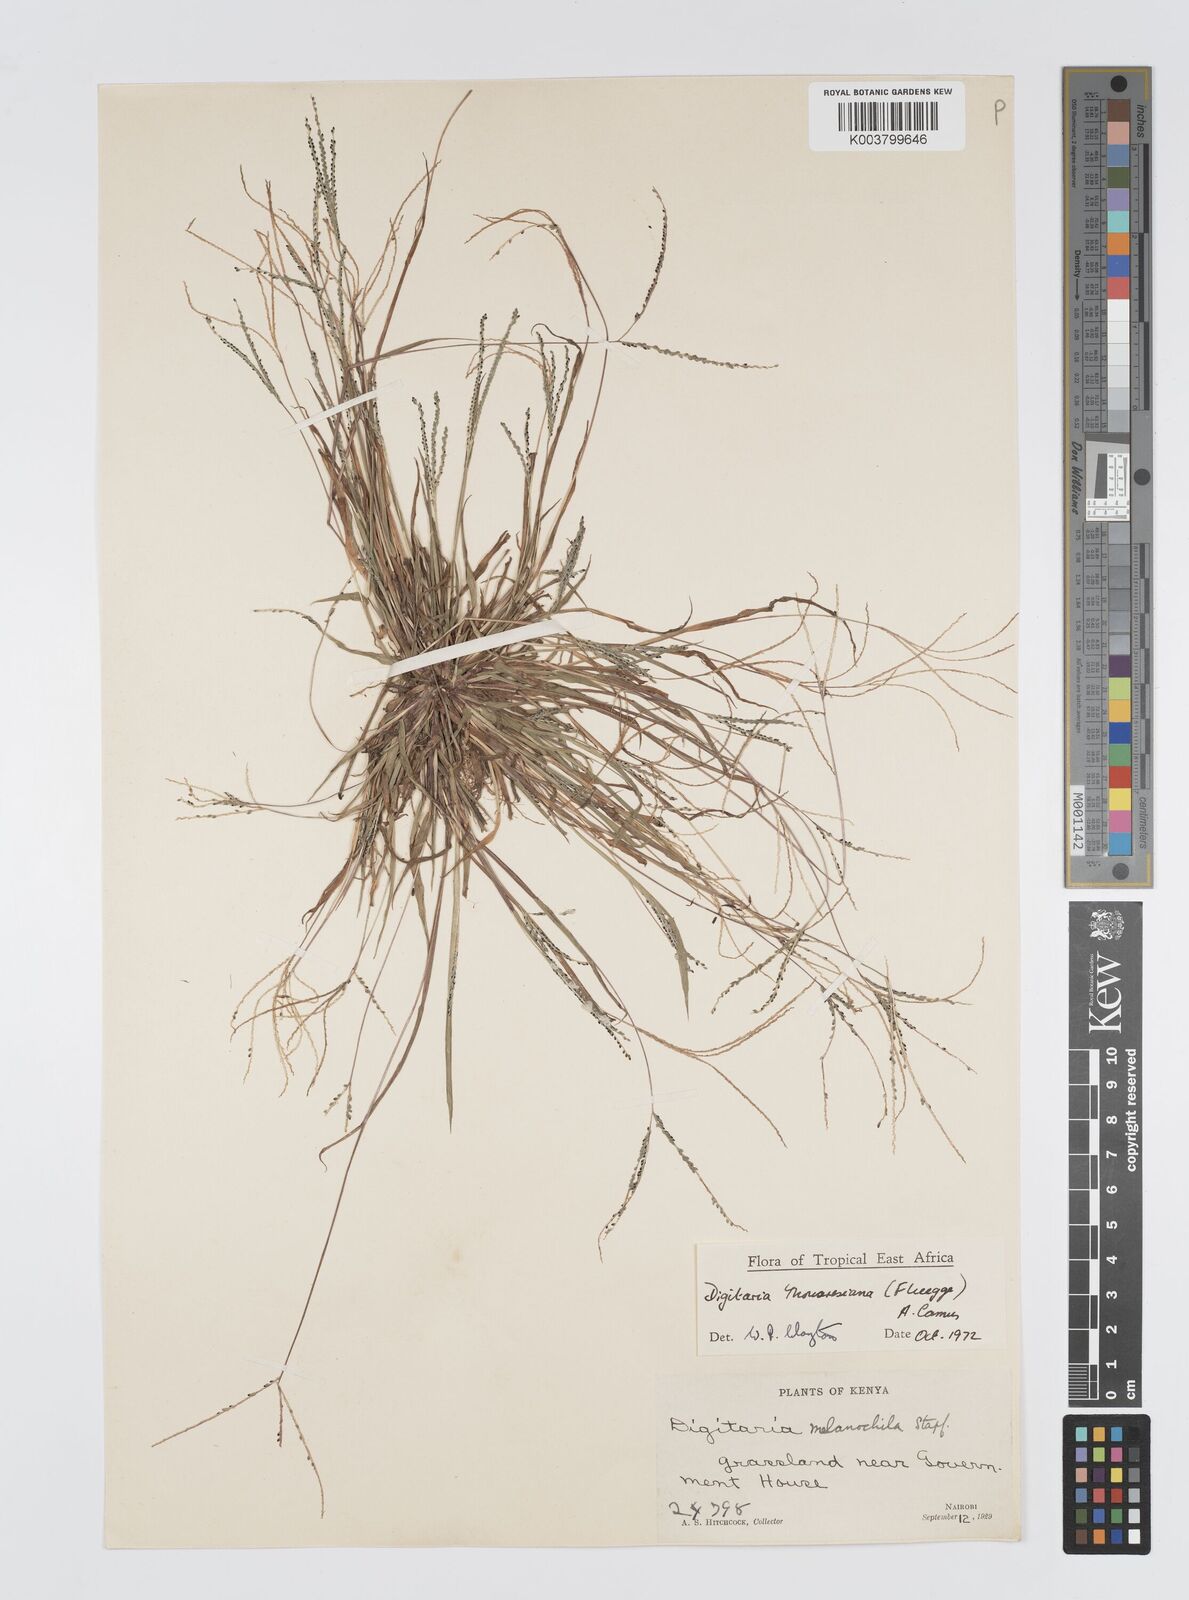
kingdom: Plantae
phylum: Tracheophyta
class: Liliopsida
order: Poales
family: Poaceae
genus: Digitaria
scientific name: Digitaria thouarsiana
